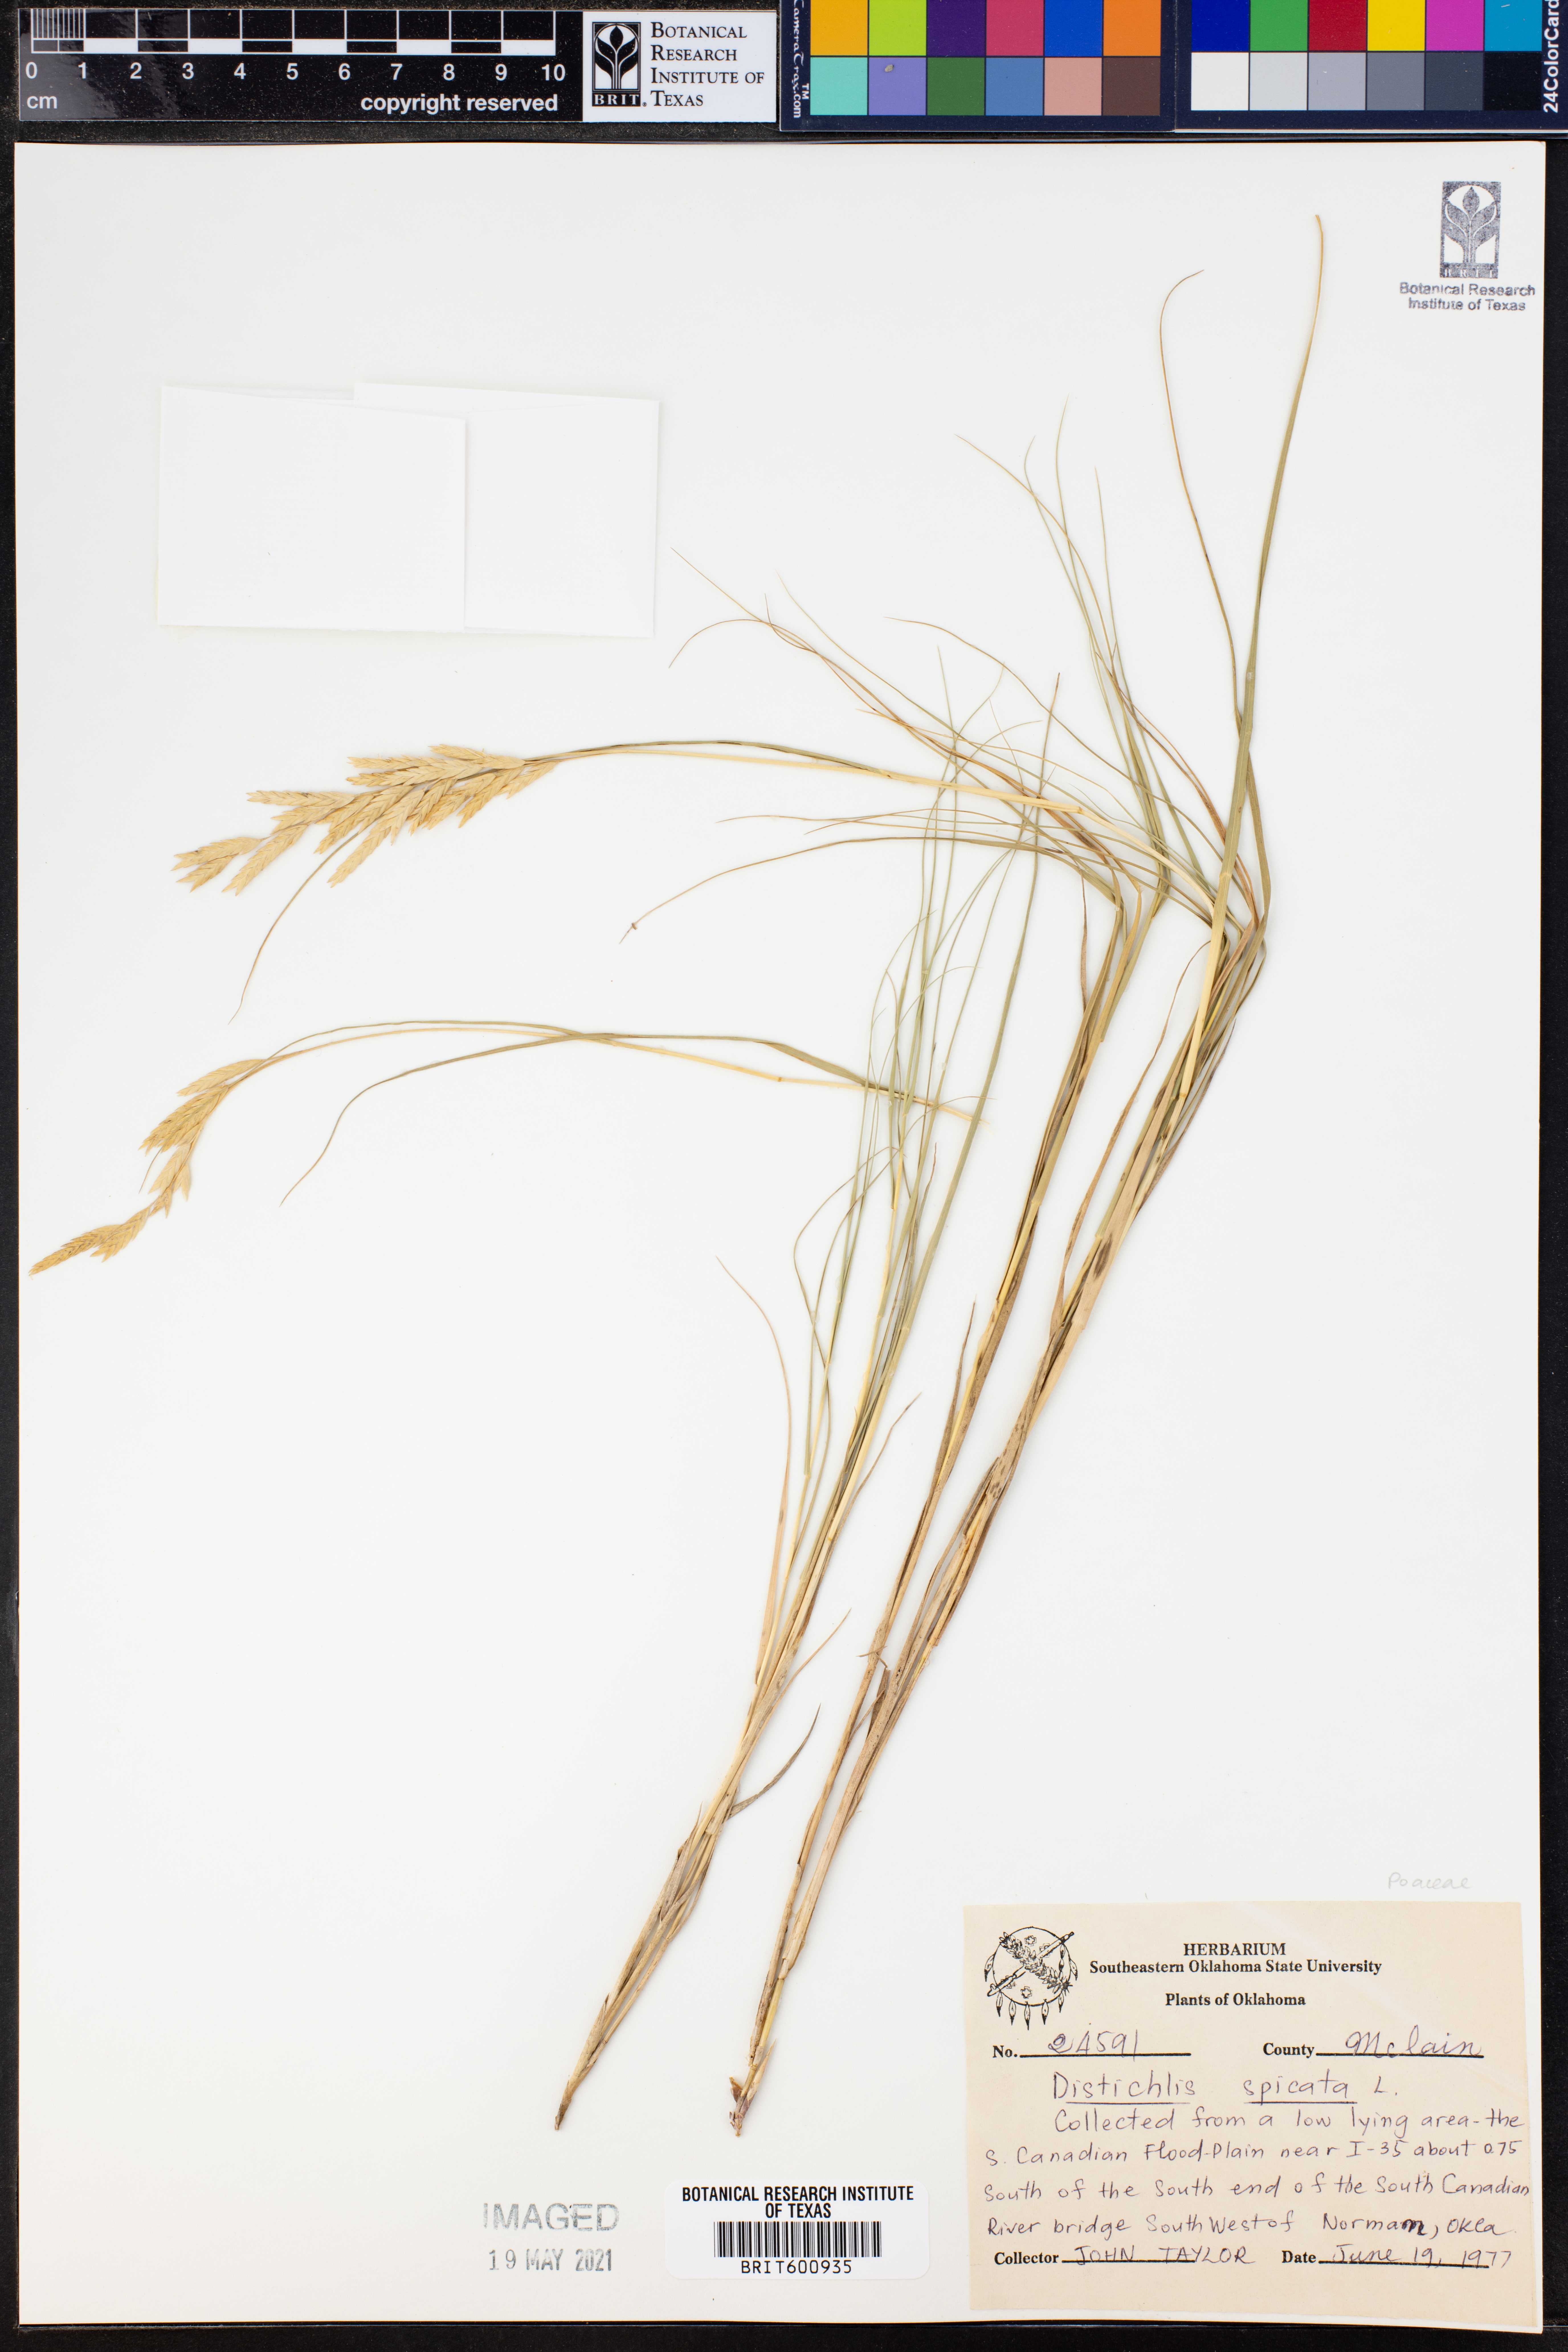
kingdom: Plantae
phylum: Tracheophyta
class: Liliopsida
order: Poales
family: Poaceae
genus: Distichlis
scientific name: Distichlis spicata
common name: Saltgrass
